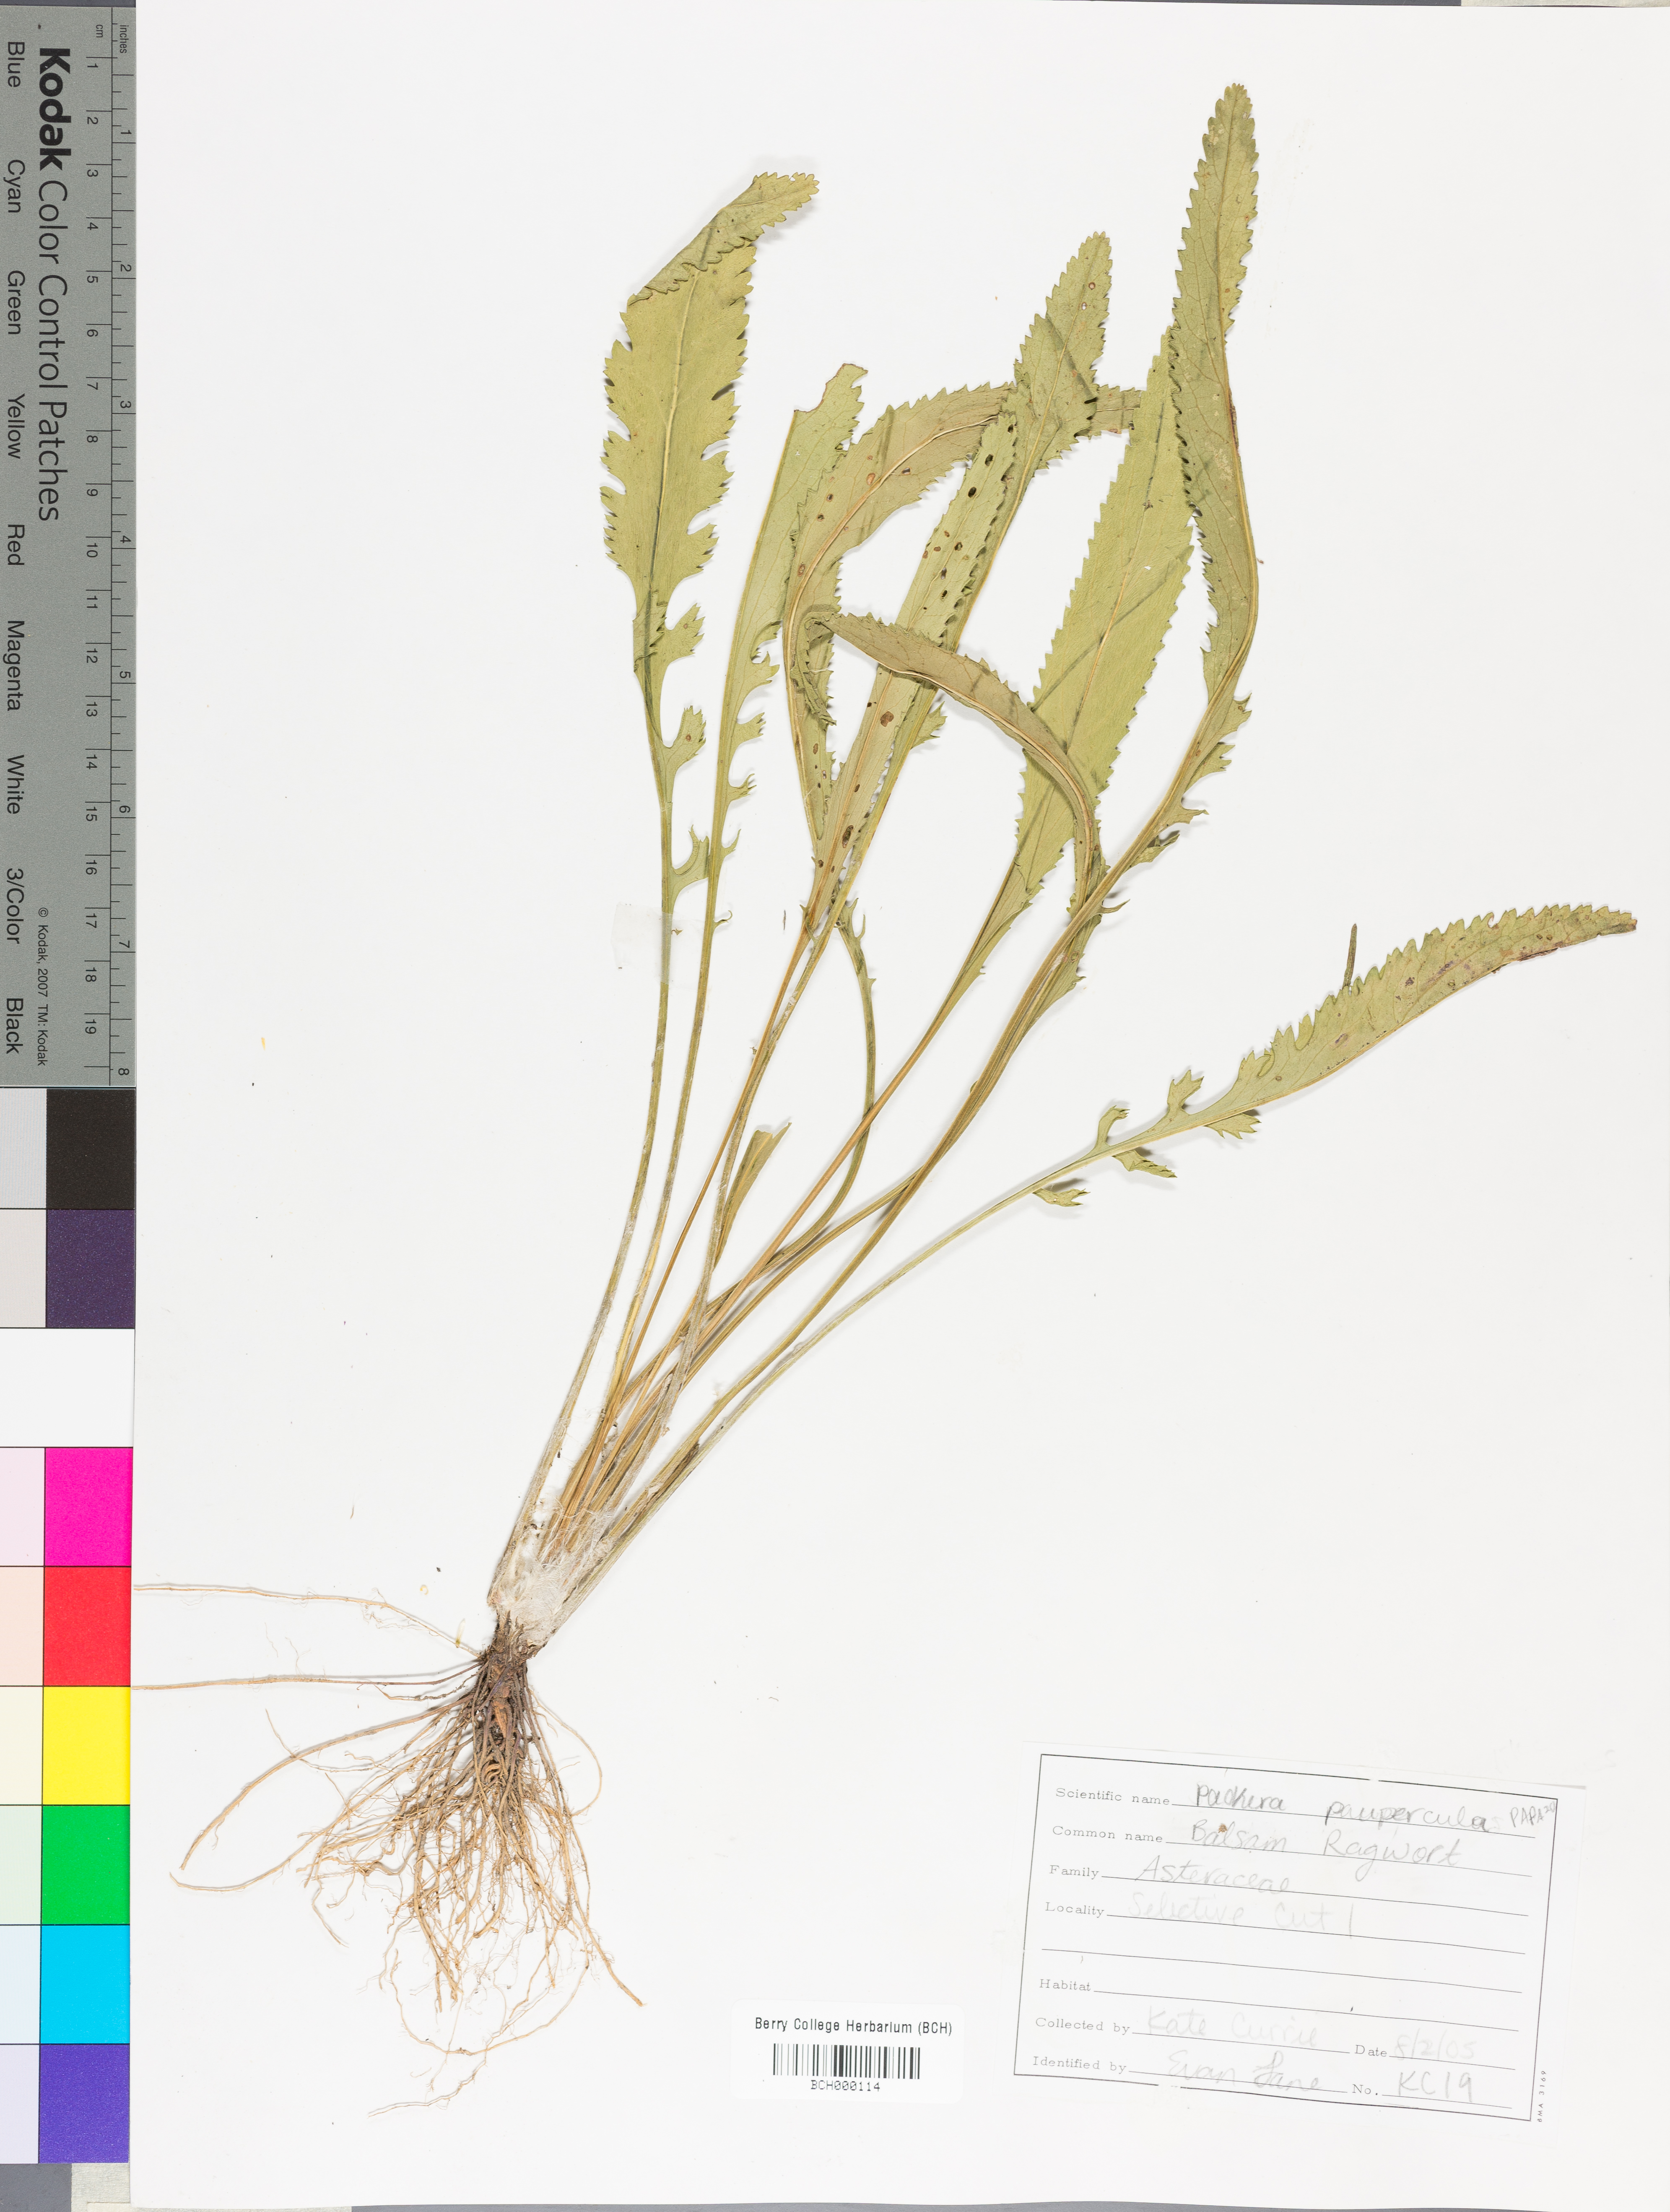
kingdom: Plantae
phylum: Tracheophyta
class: Magnoliopsida
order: Asterales
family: Asteraceae
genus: Packera
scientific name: Packera paupercula
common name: Balsam groundsel
